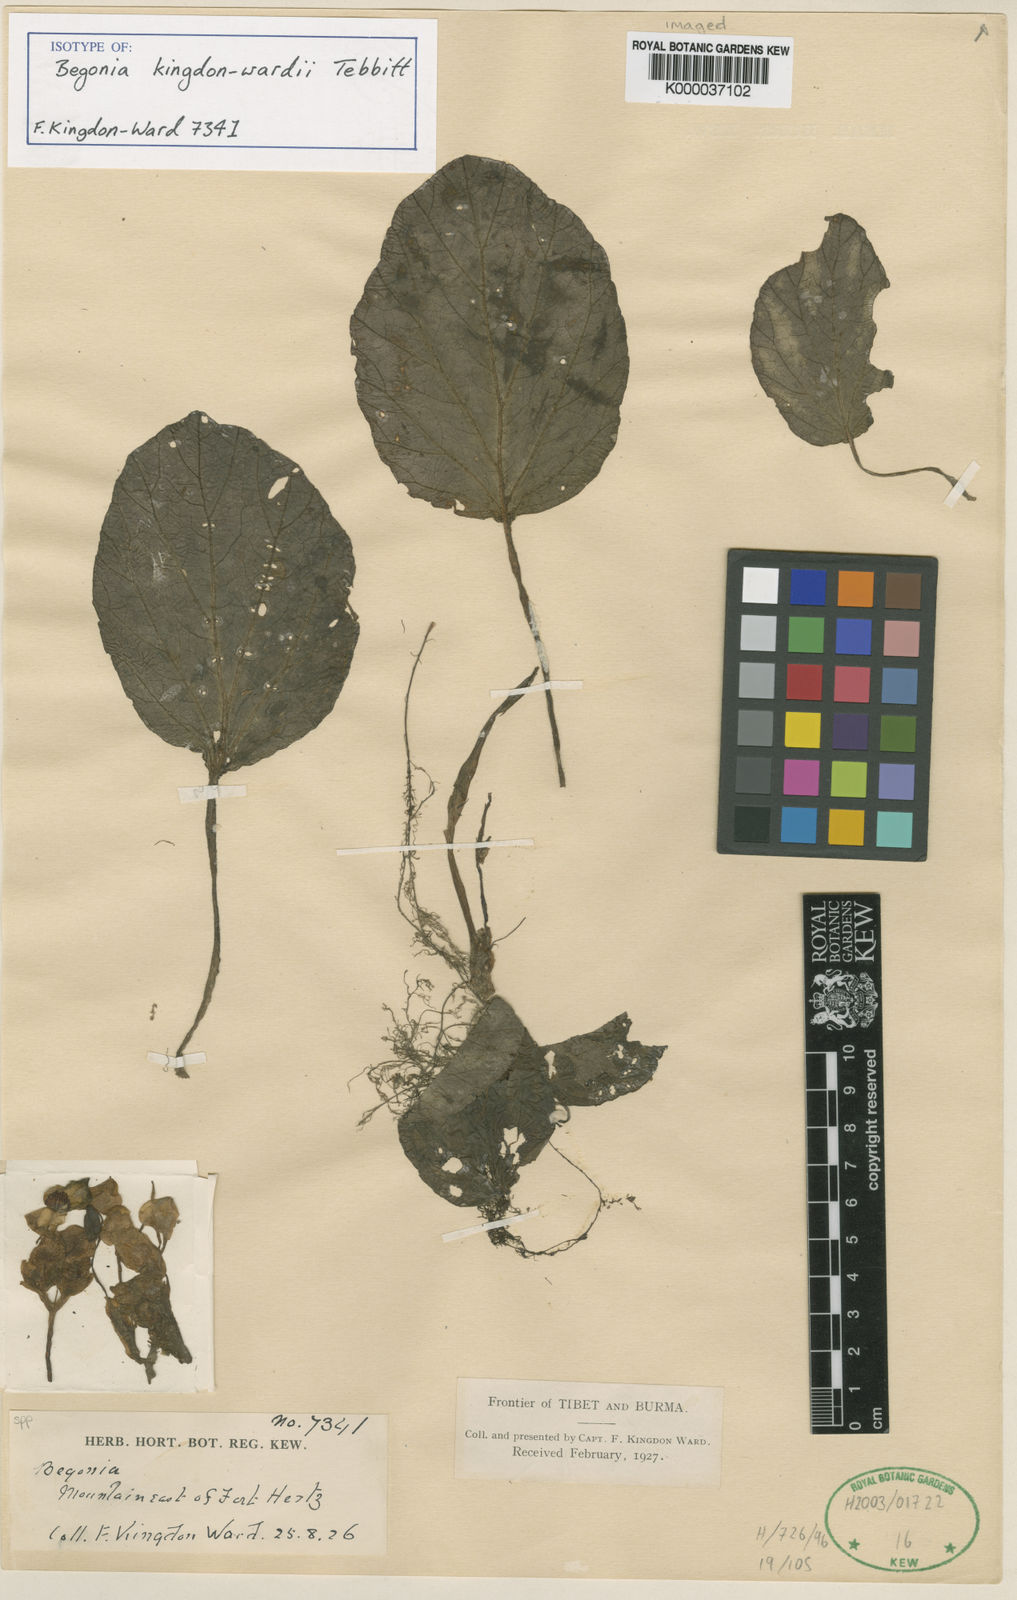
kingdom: Plantae
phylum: Tracheophyta
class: Magnoliopsida
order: Cucurbitales
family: Begoniaceae
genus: Begonia
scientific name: Begonia kingdon-wardii
